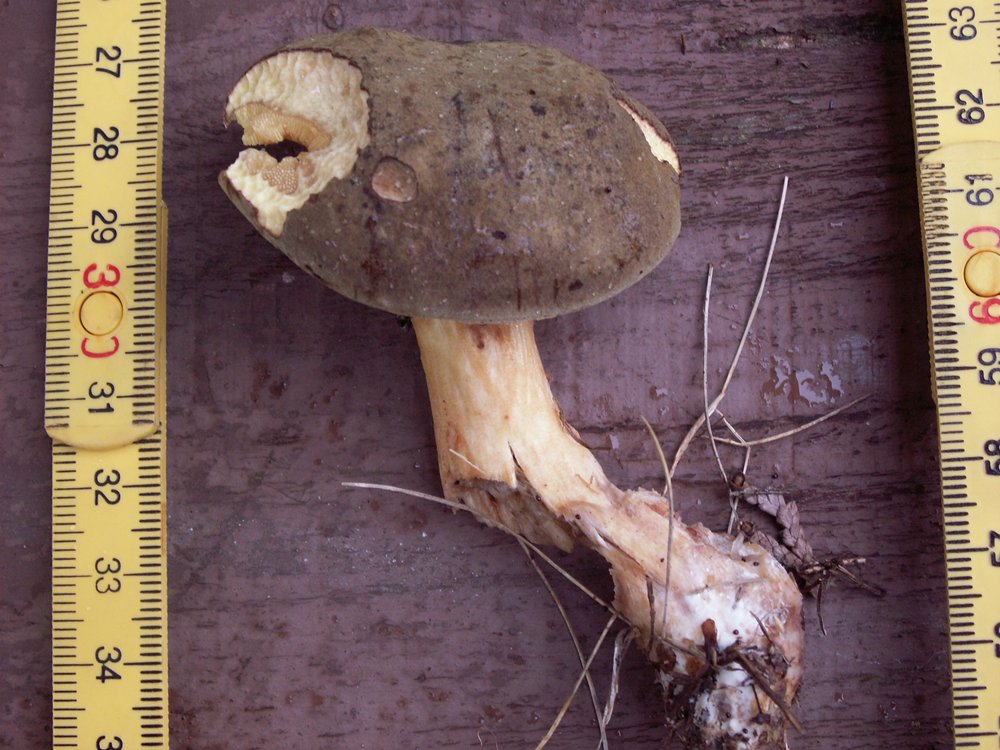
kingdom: Fungi
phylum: Basidiomycota
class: Agaricomycetes
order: Boletales
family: Boletaceae
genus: Xerocomus
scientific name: Xerocomus subtomentosus
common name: filtet rørhat
